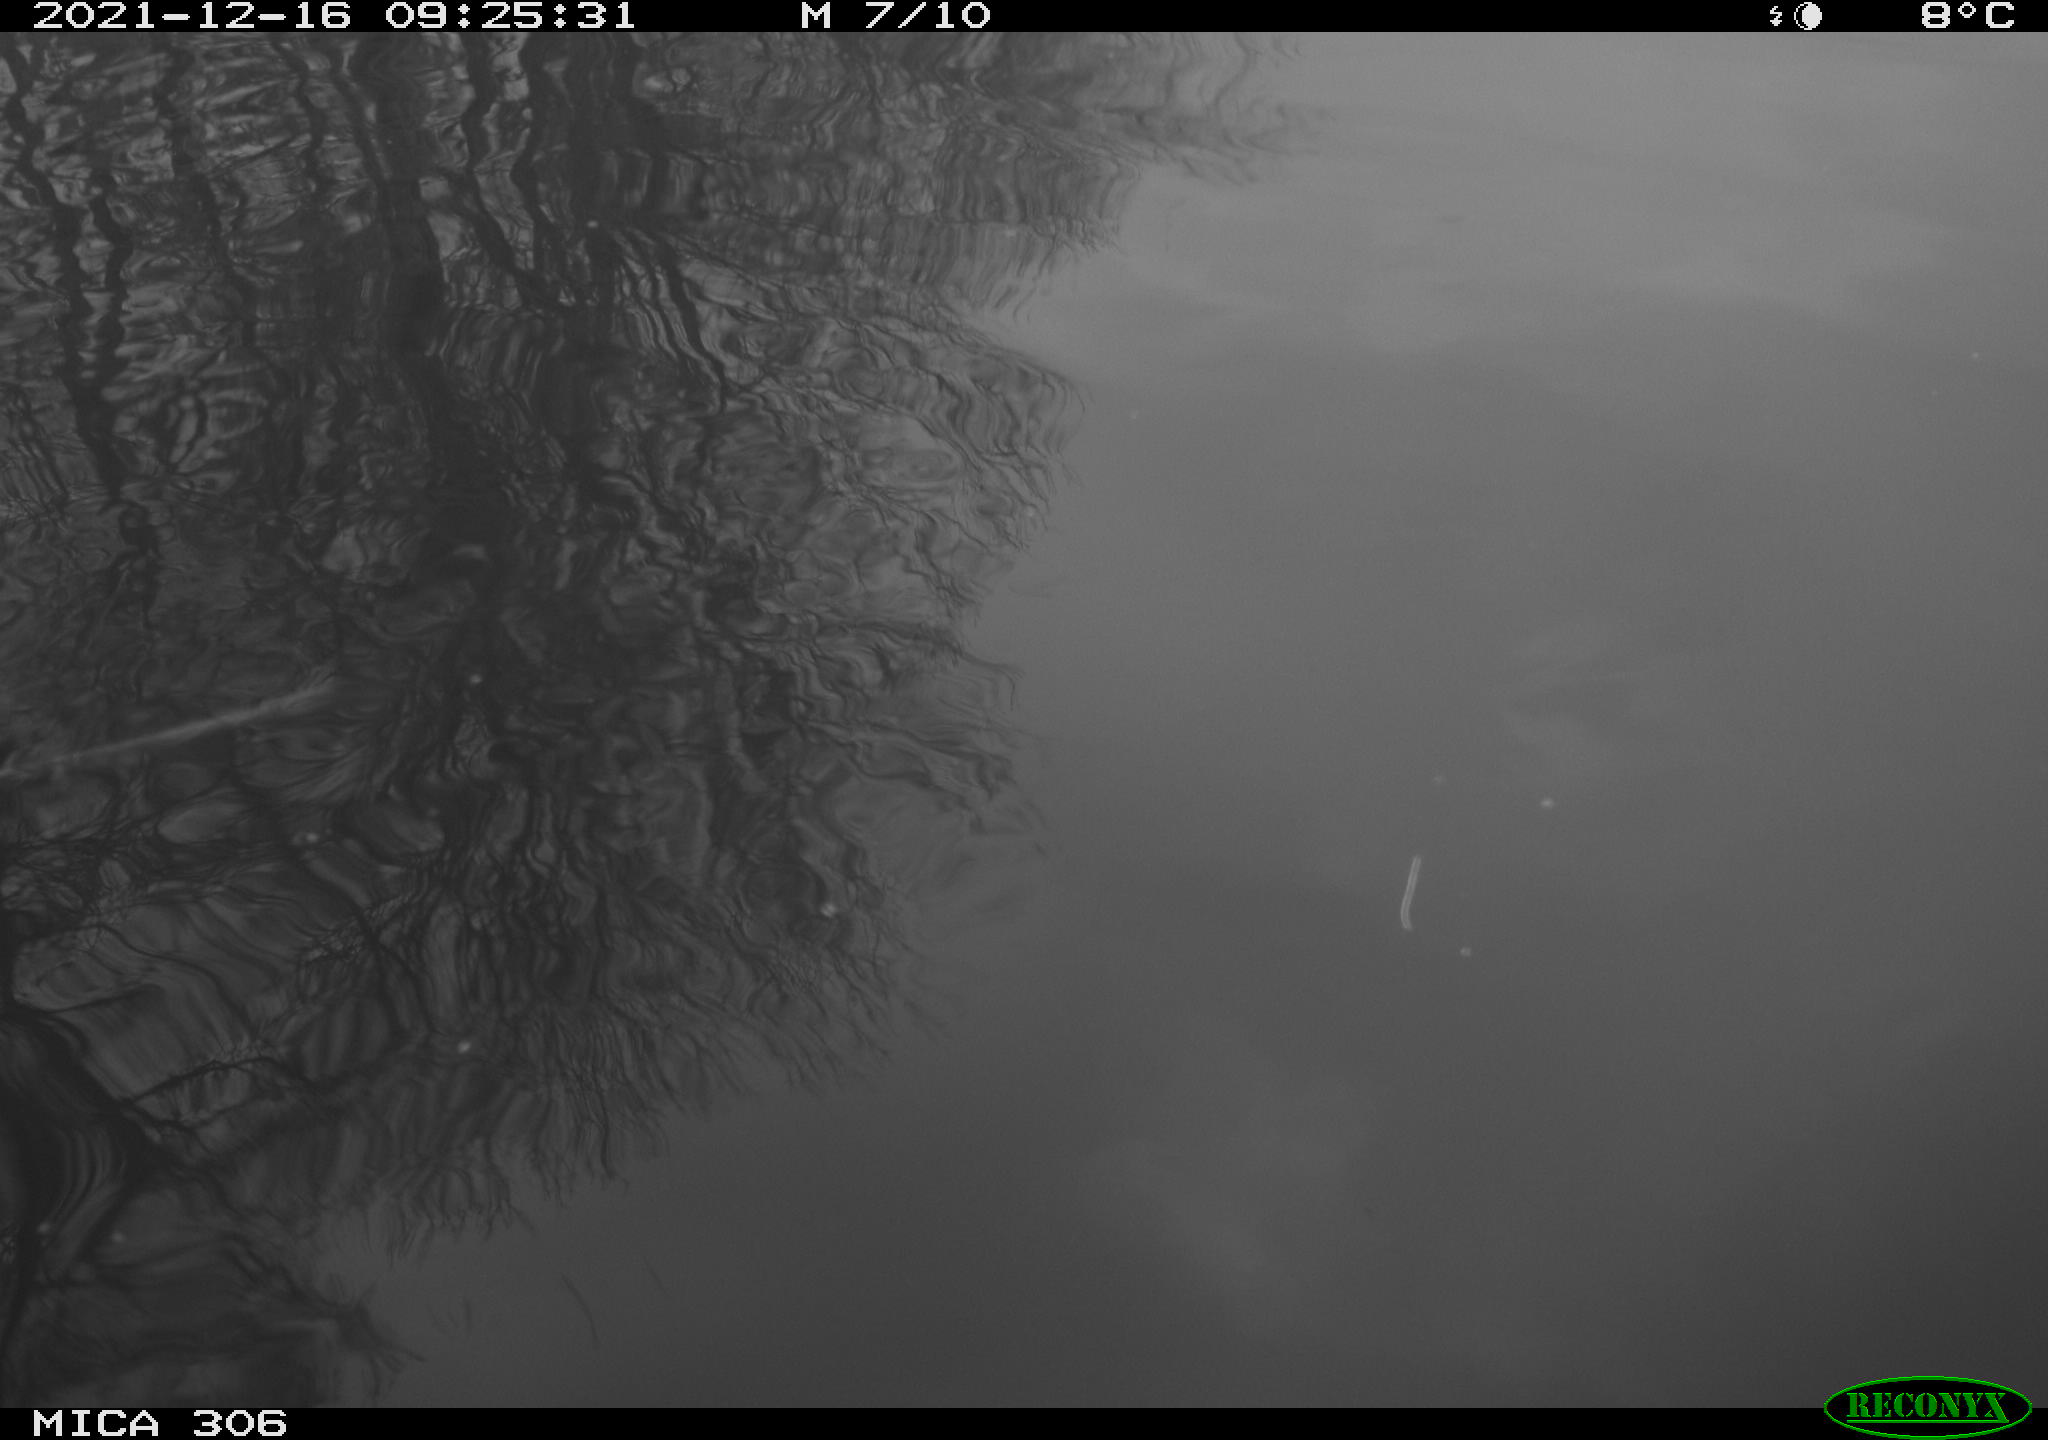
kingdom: Animalia
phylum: Chordata
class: Aves
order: Anseriformes
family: Anatidae
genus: Anas
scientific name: Anas
